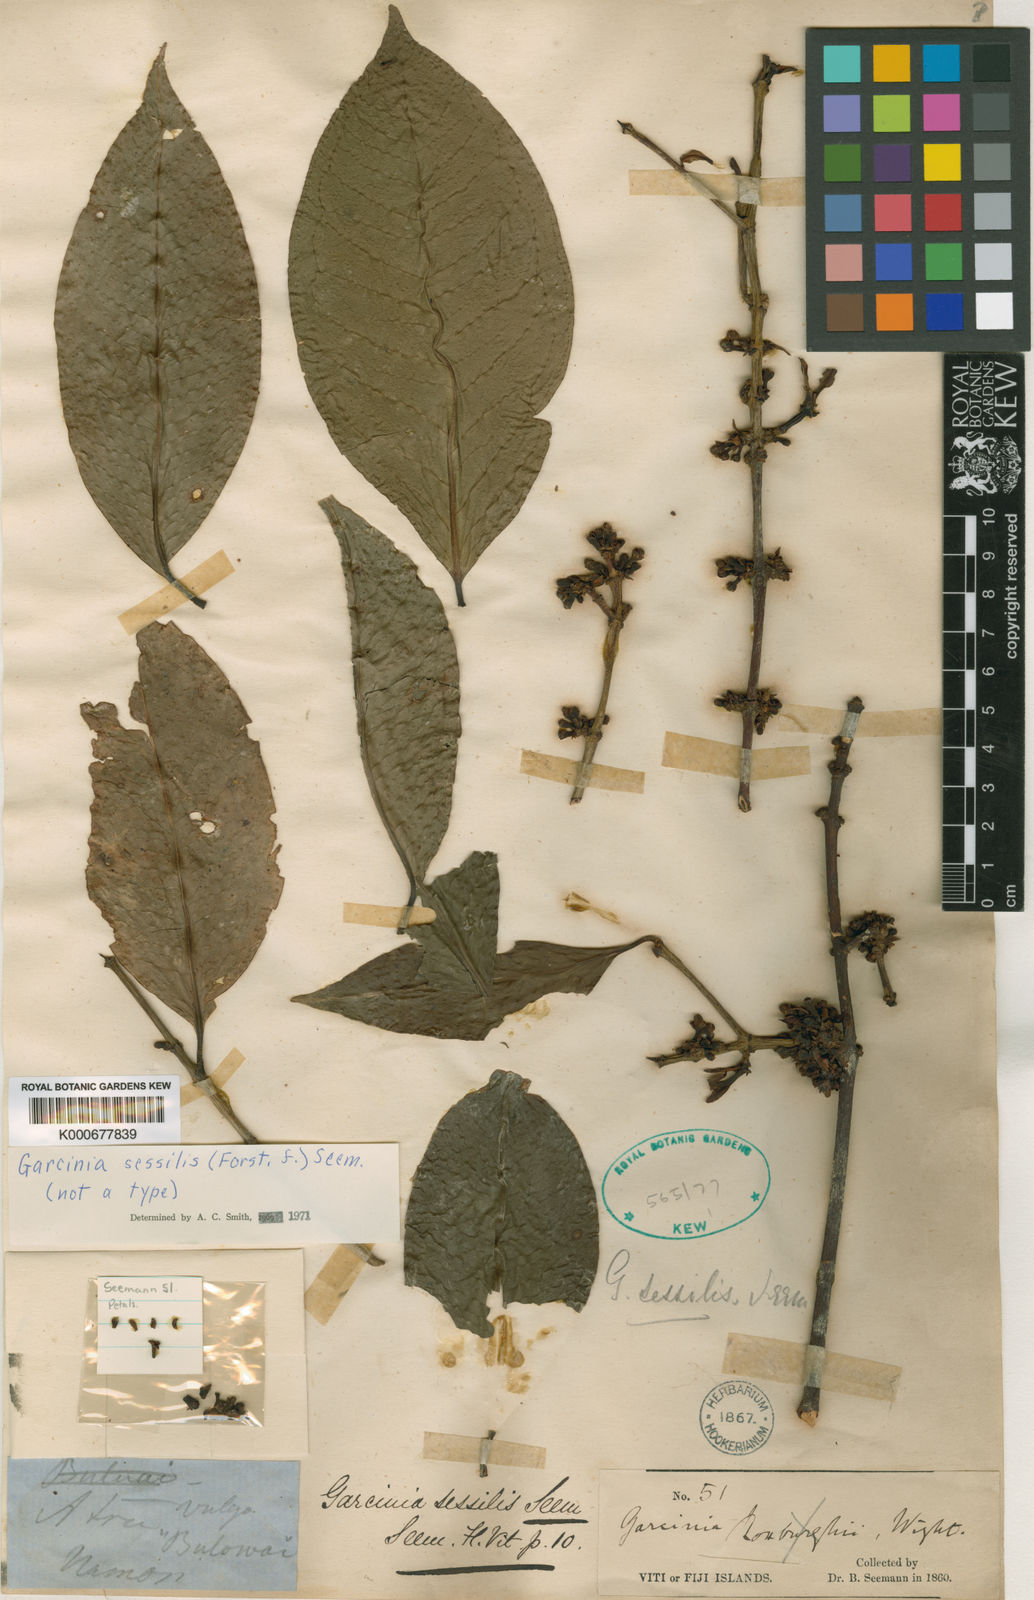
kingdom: Plantae
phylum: Tracheophyta
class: Magnoliopsida
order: Malpighiales
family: Clusiaceae
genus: Garcinia
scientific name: Garcinia sessilis
